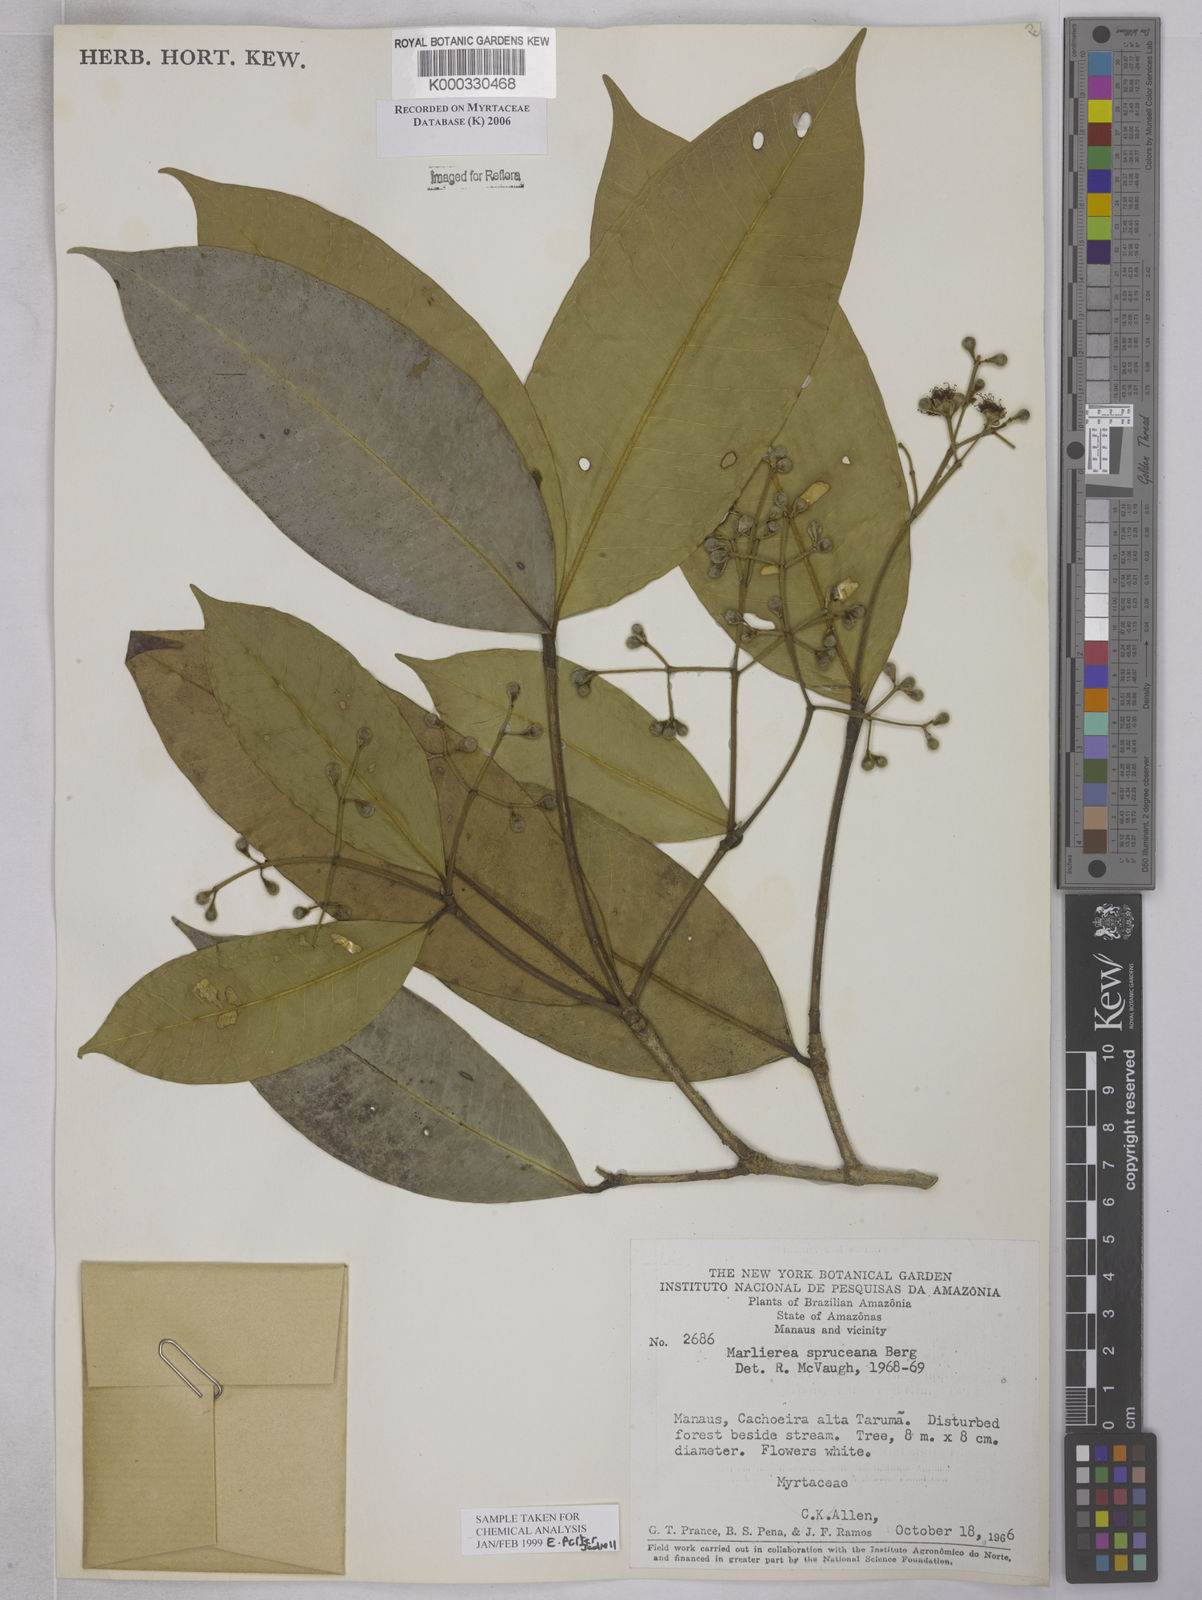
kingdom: Plantae
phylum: Tracheophyta
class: Magnoliopsida
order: Myrtales
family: Myrtaceae
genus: Myrcia
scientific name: Myrcia argentigemma
